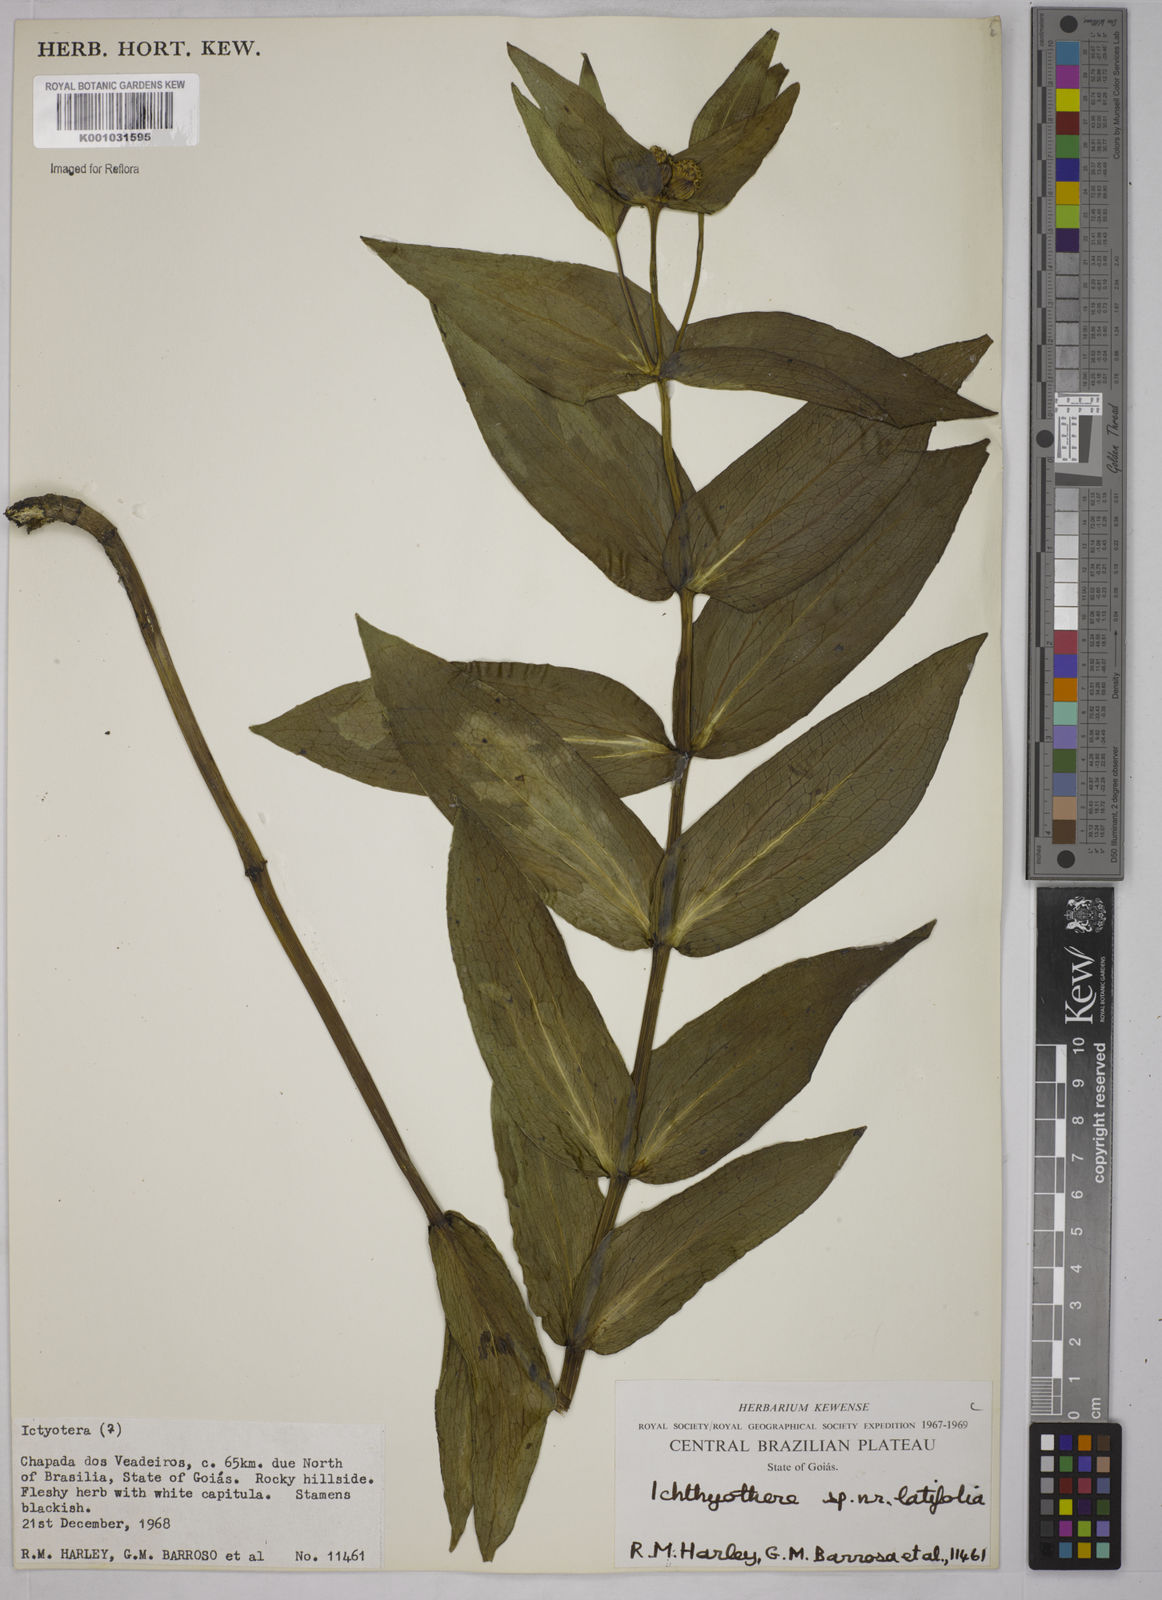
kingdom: Plantae
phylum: Tracheophyta
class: Magnoliopsida
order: Asterales
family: Asteraceae
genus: Ichthyothere
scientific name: Ichthyothere latifolia
